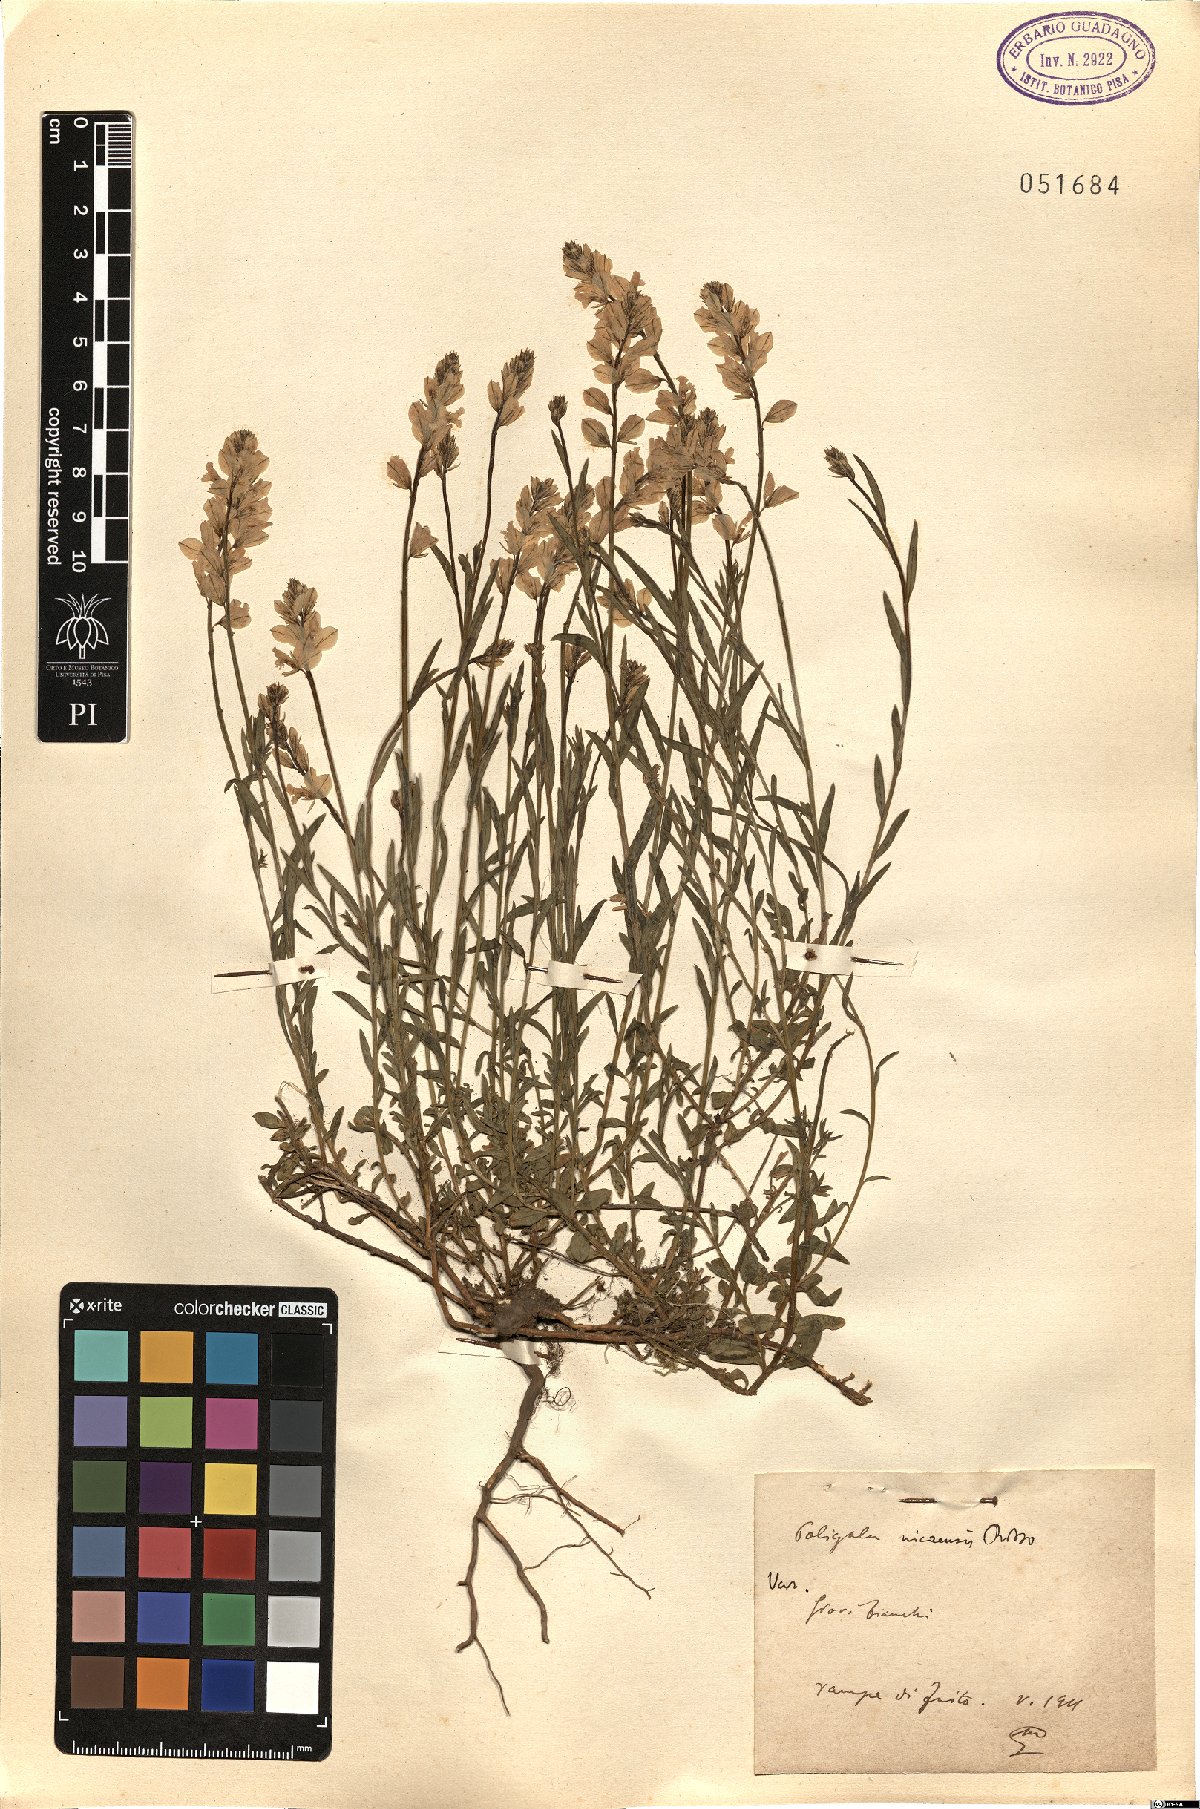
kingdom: Plantae
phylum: Tracheophyta
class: Magnoliopsida
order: Fabales
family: Polygalaceae
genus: Polygala
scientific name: Polygala nicaeensis
